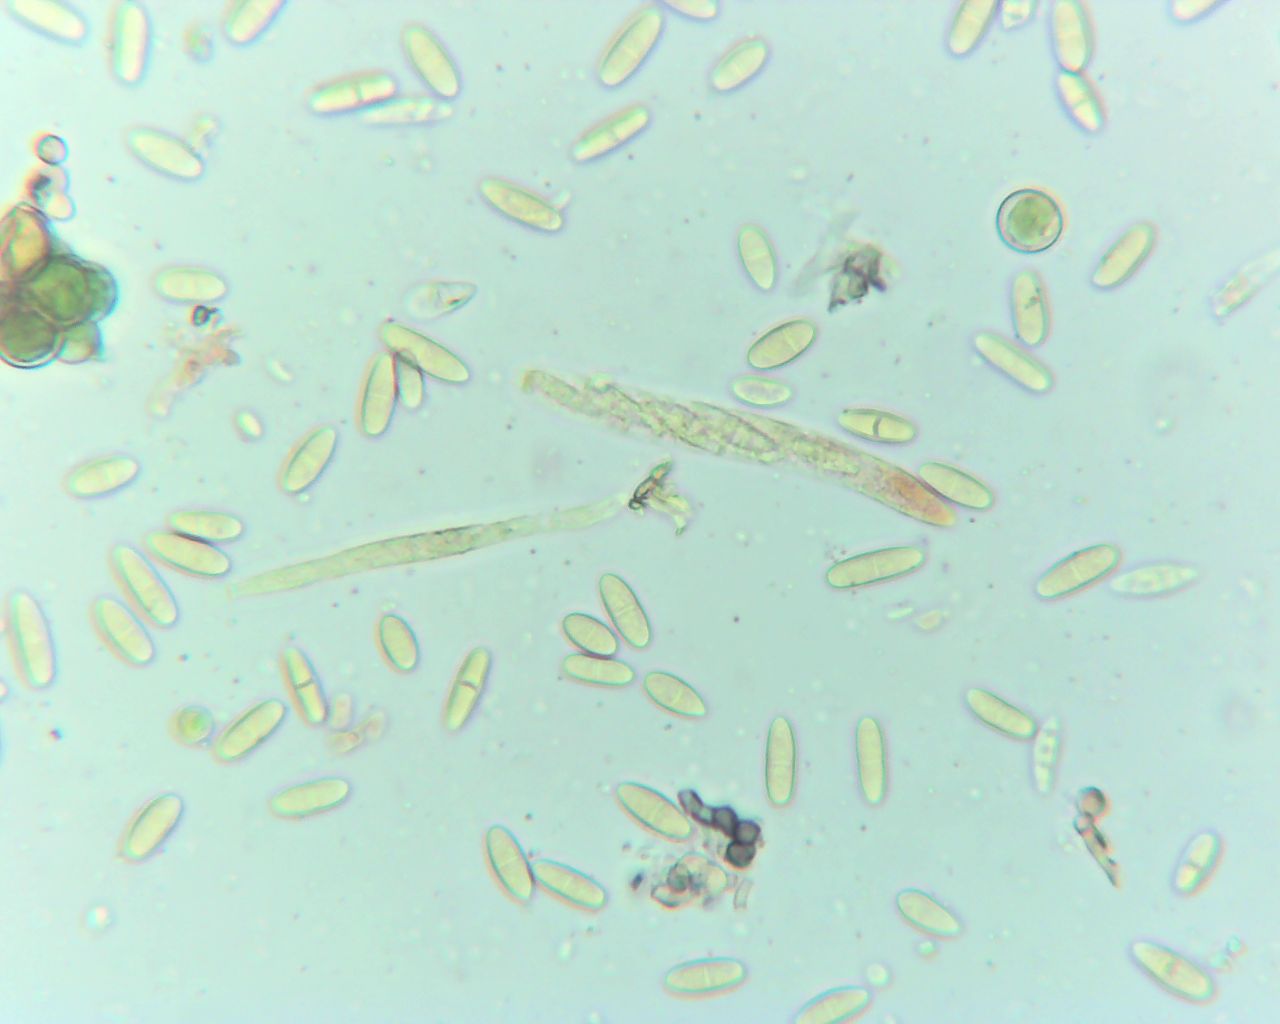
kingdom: Fungi
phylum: Ascomycota
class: Sordariomycetes
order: Diaporthales
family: Gnomoniaceae
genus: Plagiostoma
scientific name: Plagiostoma convexum
